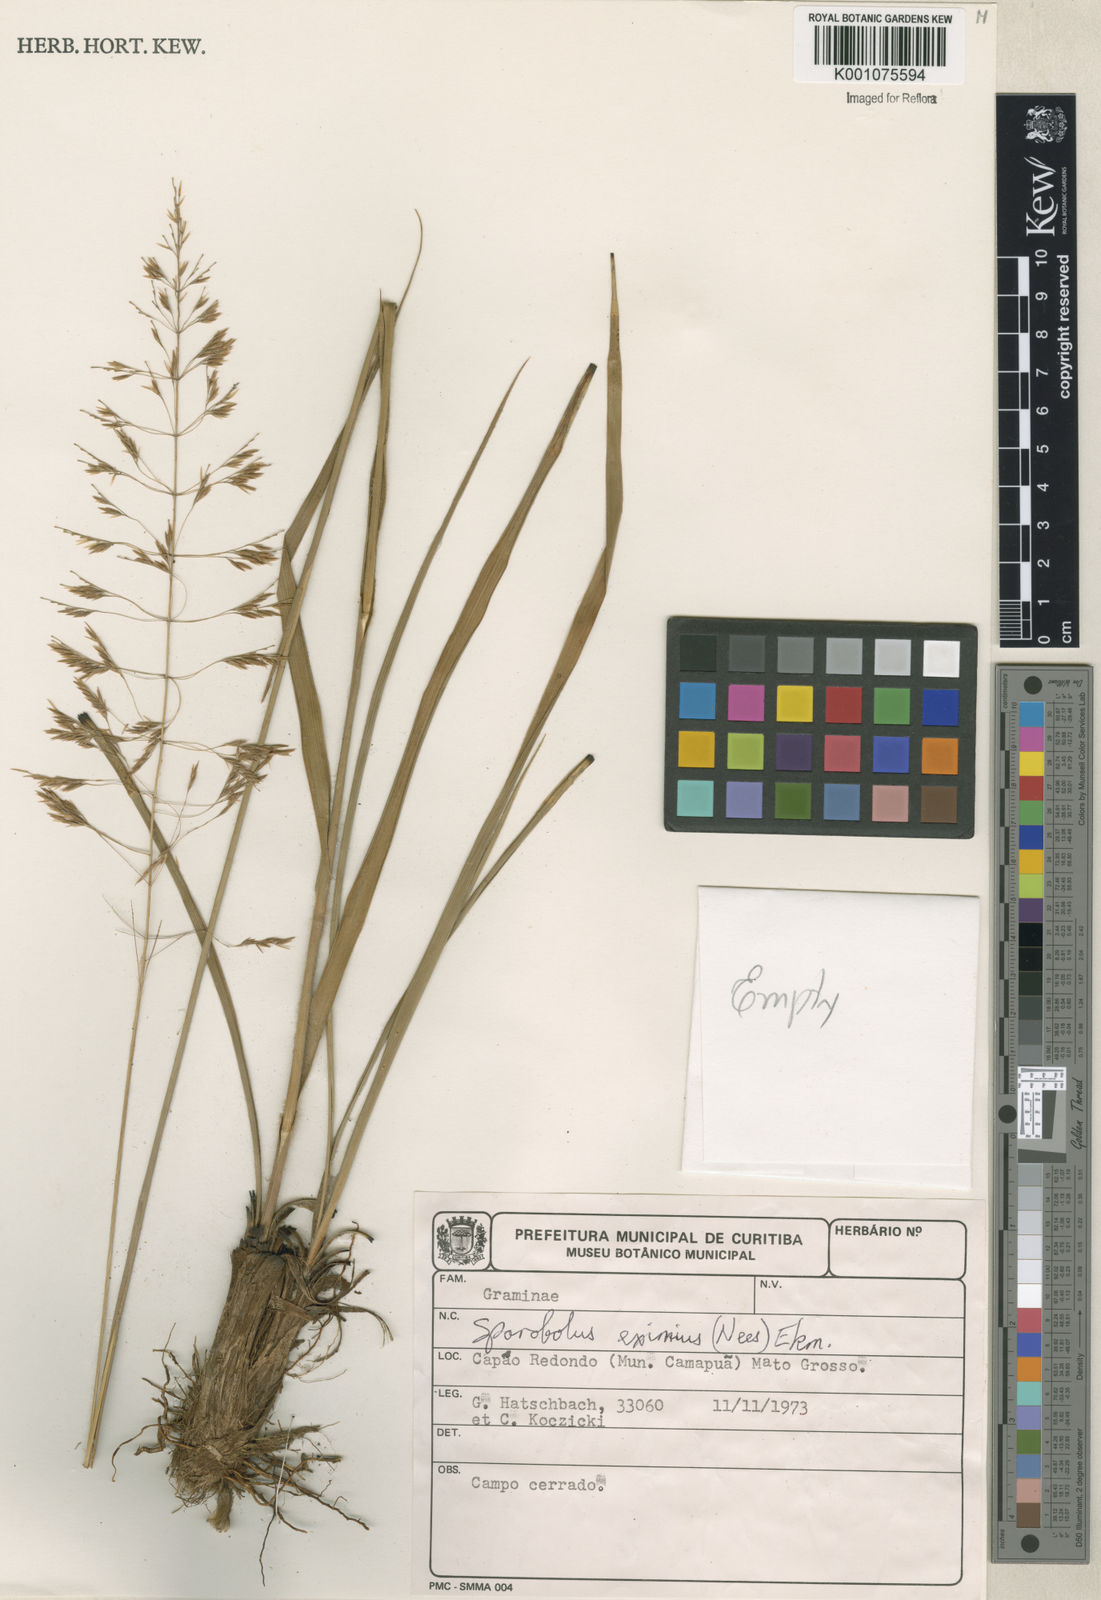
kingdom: Plantae
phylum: Tracheophyta
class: Liliopsida
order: Poales
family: Poaceae
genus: Sporobolus
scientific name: Sporobolus eximius
